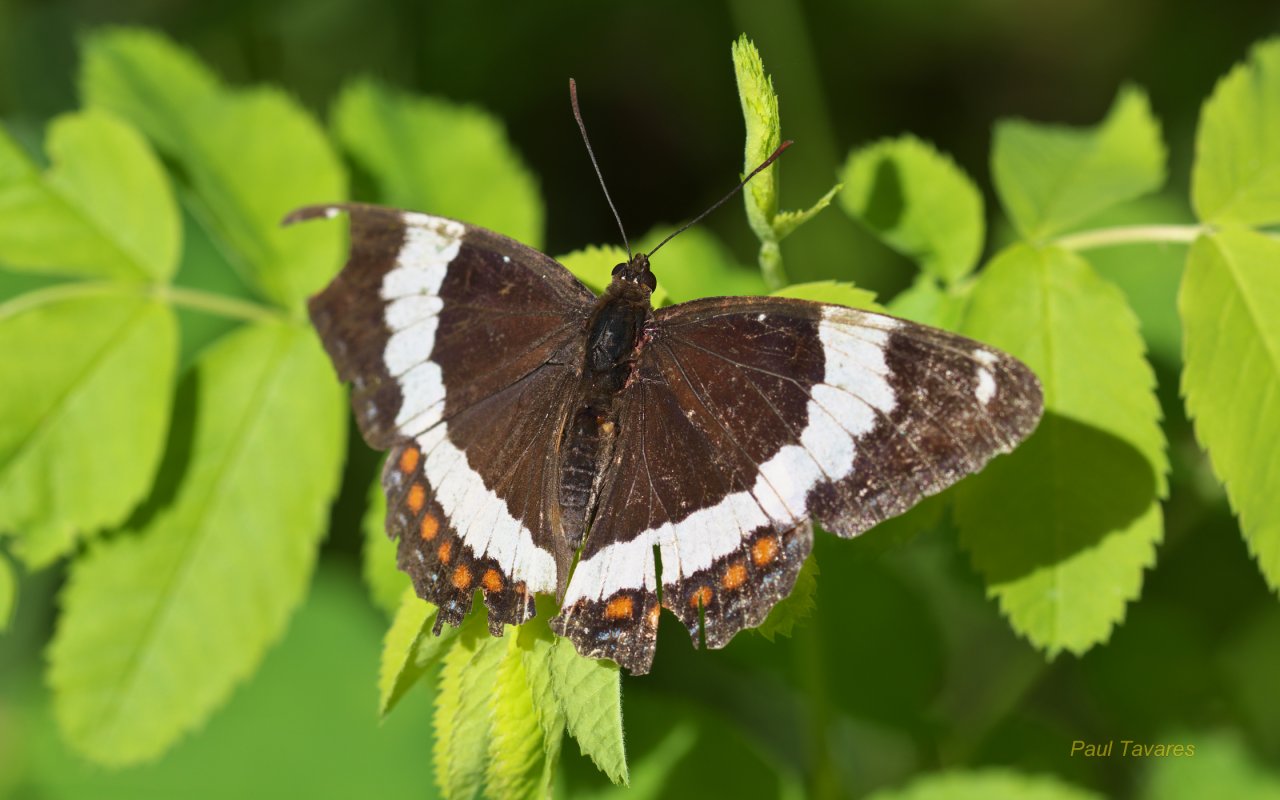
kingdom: Animalia
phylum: Arthropoda
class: Insecta
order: Lepidoptera
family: Nymphalidae
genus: Limenitis
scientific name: Limenitis arthemis
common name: Red-spotted Admiral
